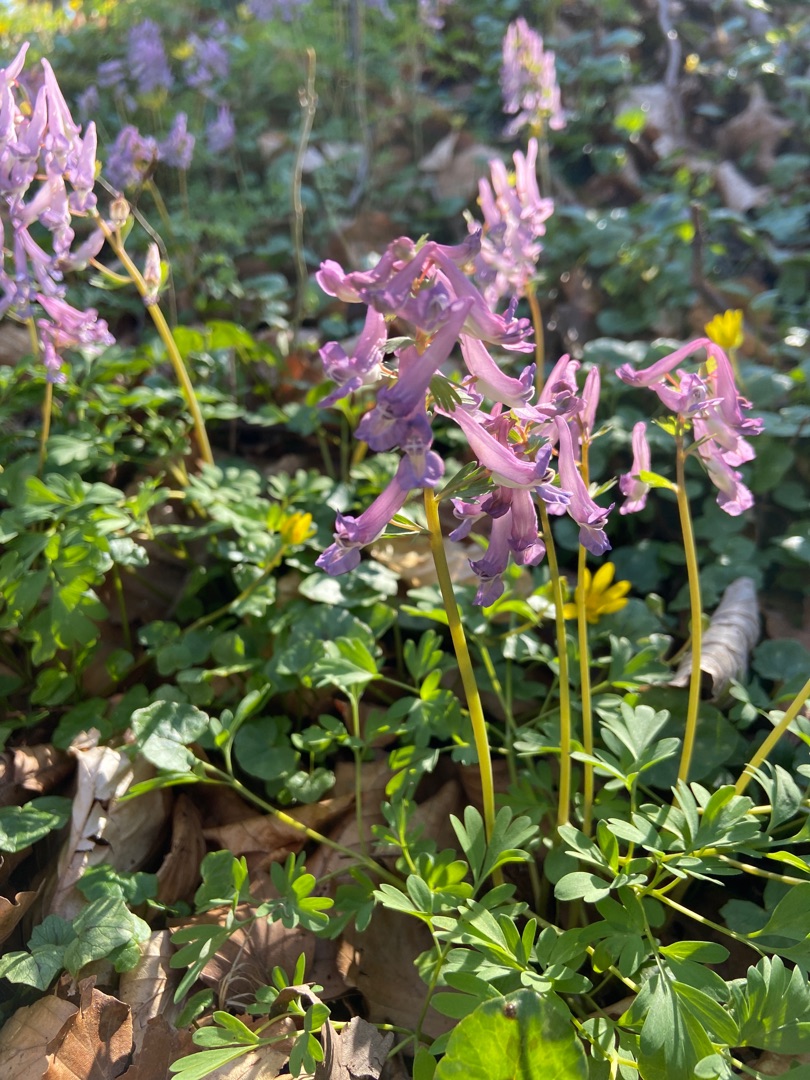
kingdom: Plantae
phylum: Tracheophyta
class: Magnoliopsida
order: Ranunculales
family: Papaveraceae
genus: Corydalis
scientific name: Corydalis solida
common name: Langstilket lærkespore
